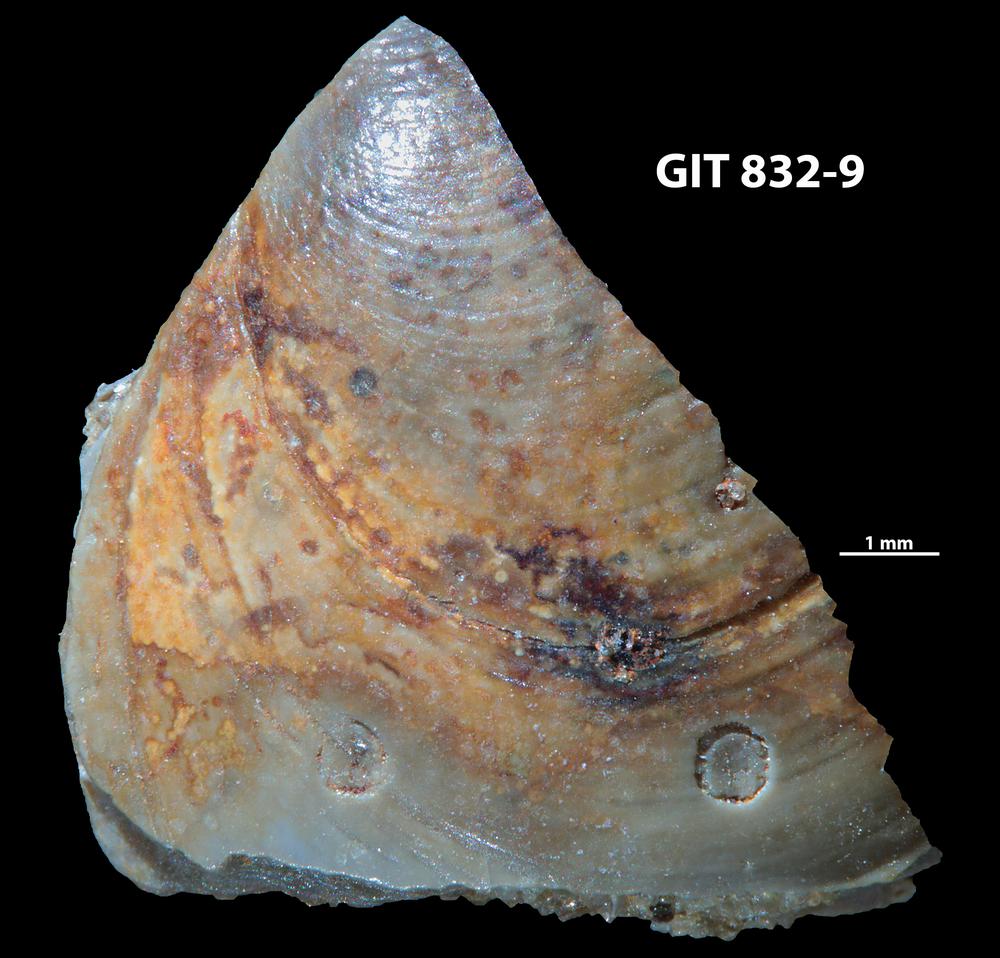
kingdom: Animalia
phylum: Porifera
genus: Ungula
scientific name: Ungula
